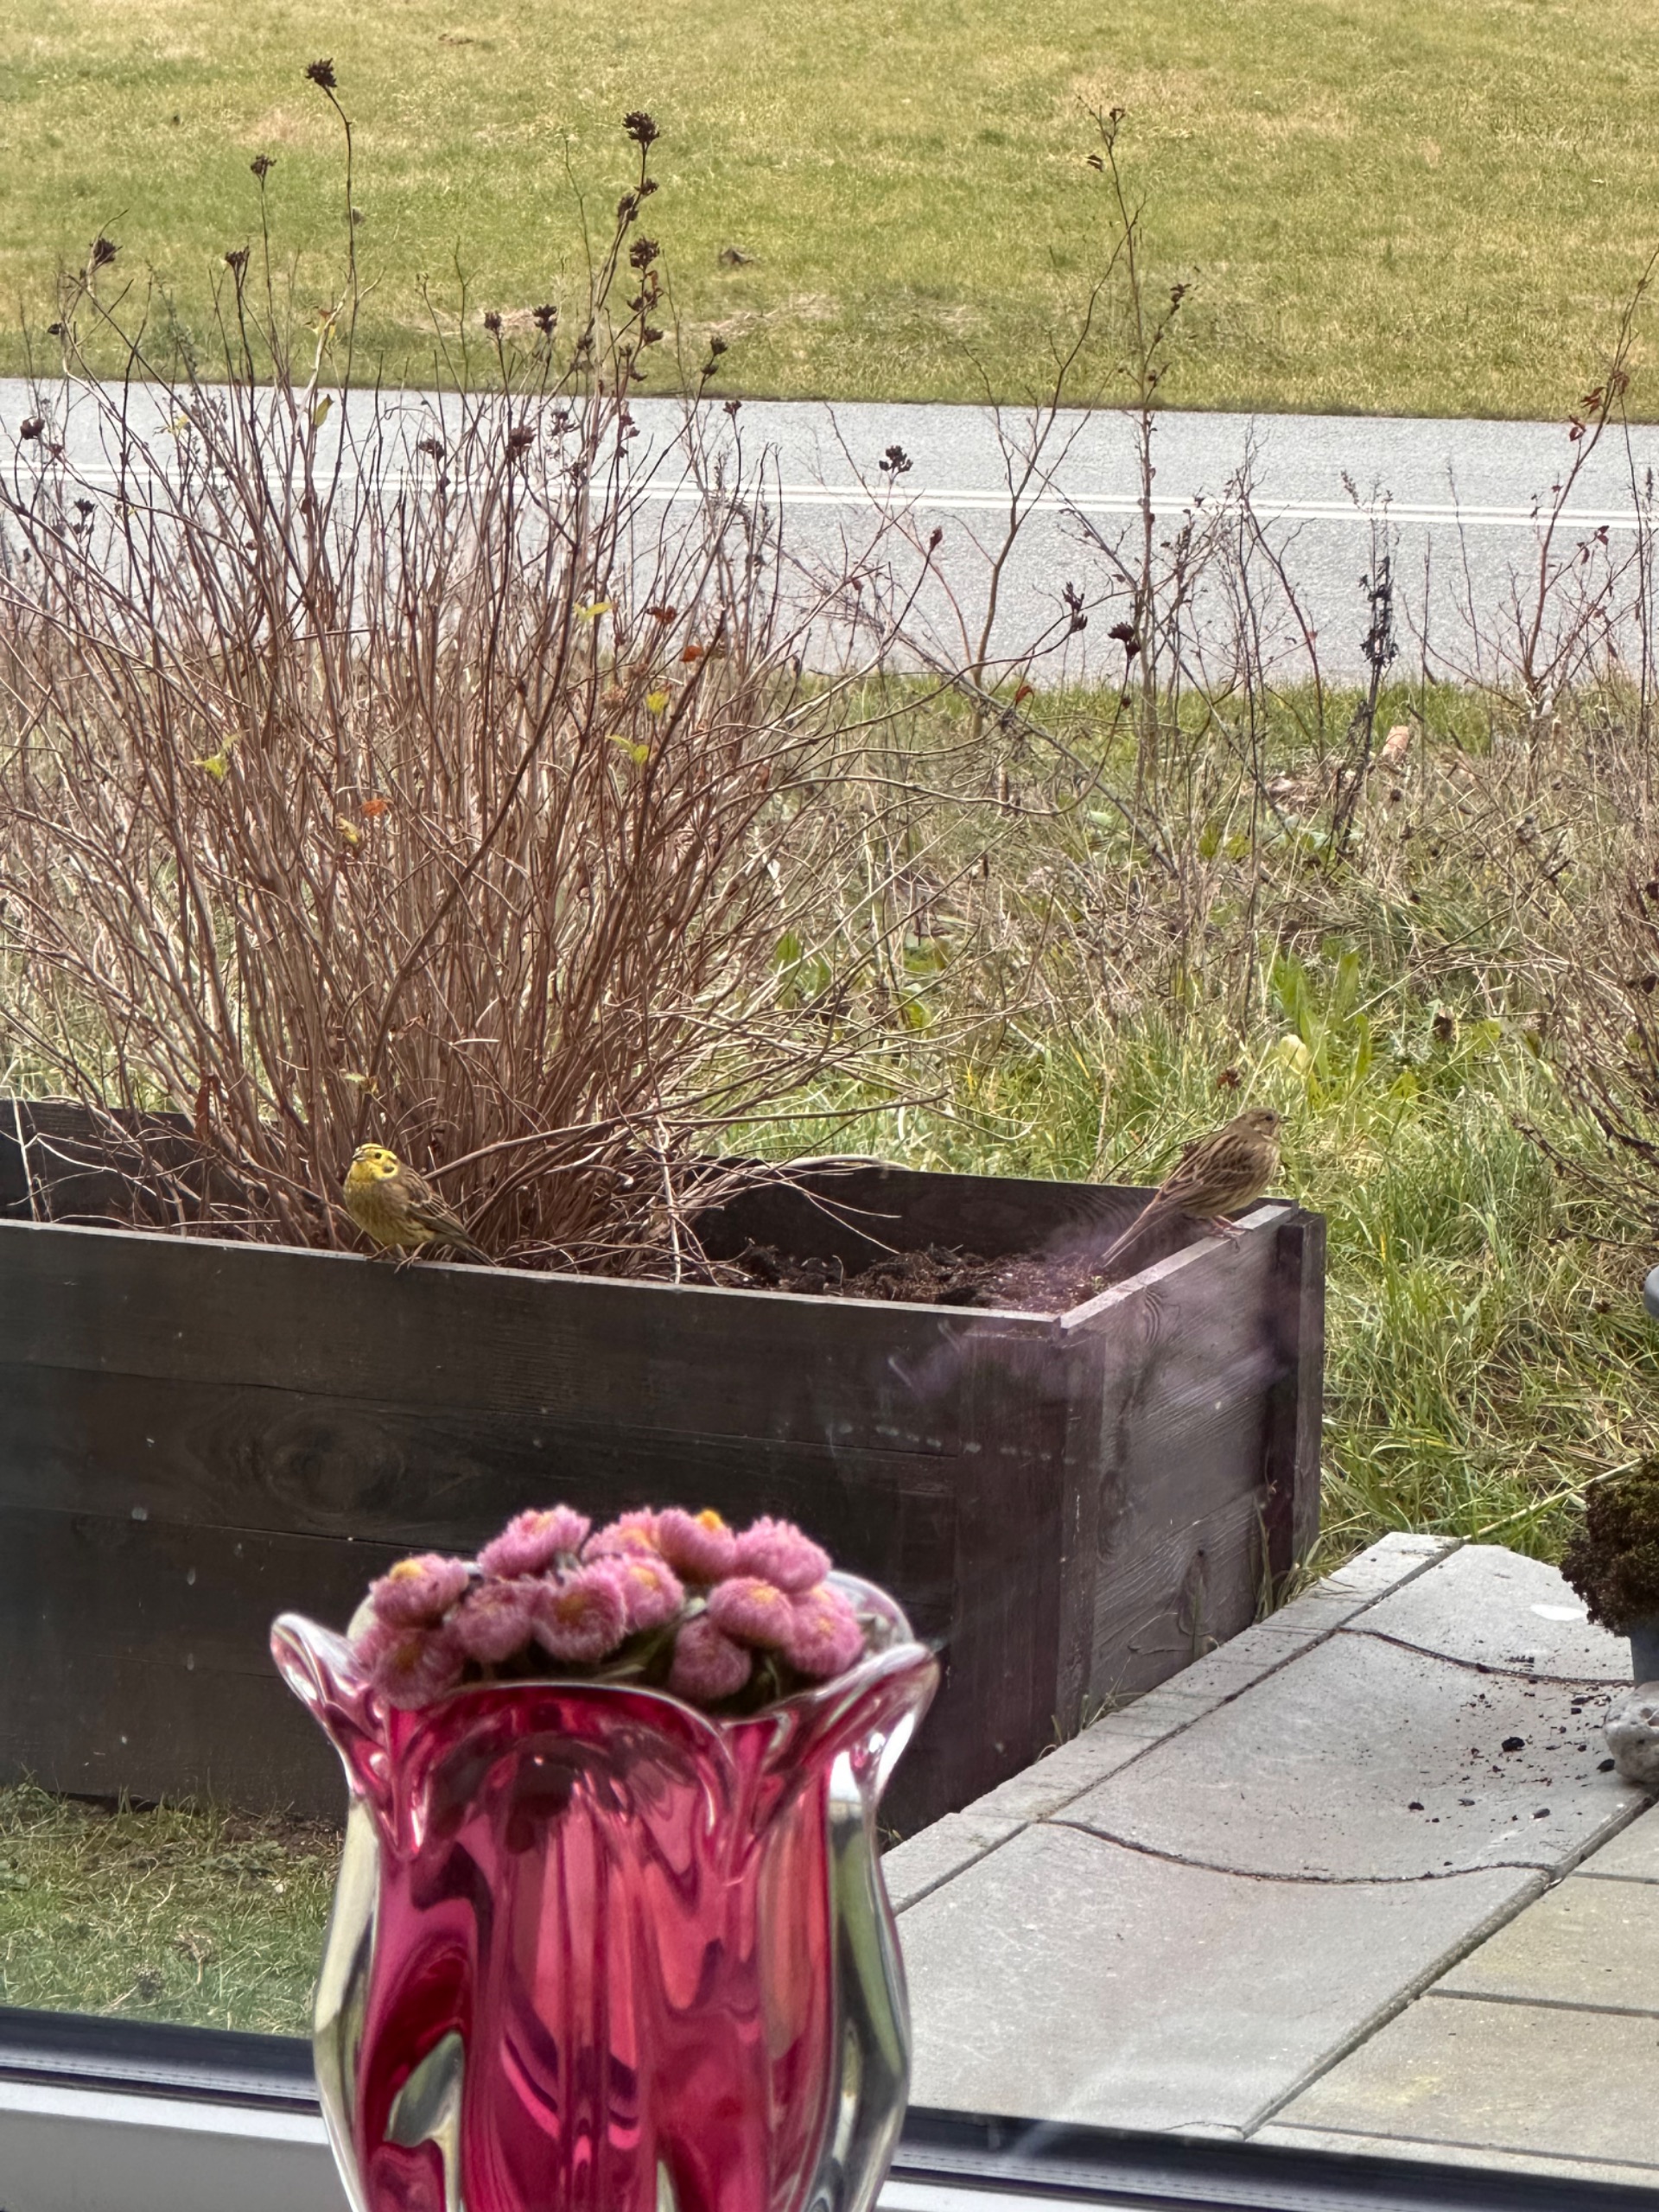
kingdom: Animalia
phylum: Chordata
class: Aves
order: Passeriformes
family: Emberizidae
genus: Emberiza
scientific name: Emberiza citrinella
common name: Gulspurv
